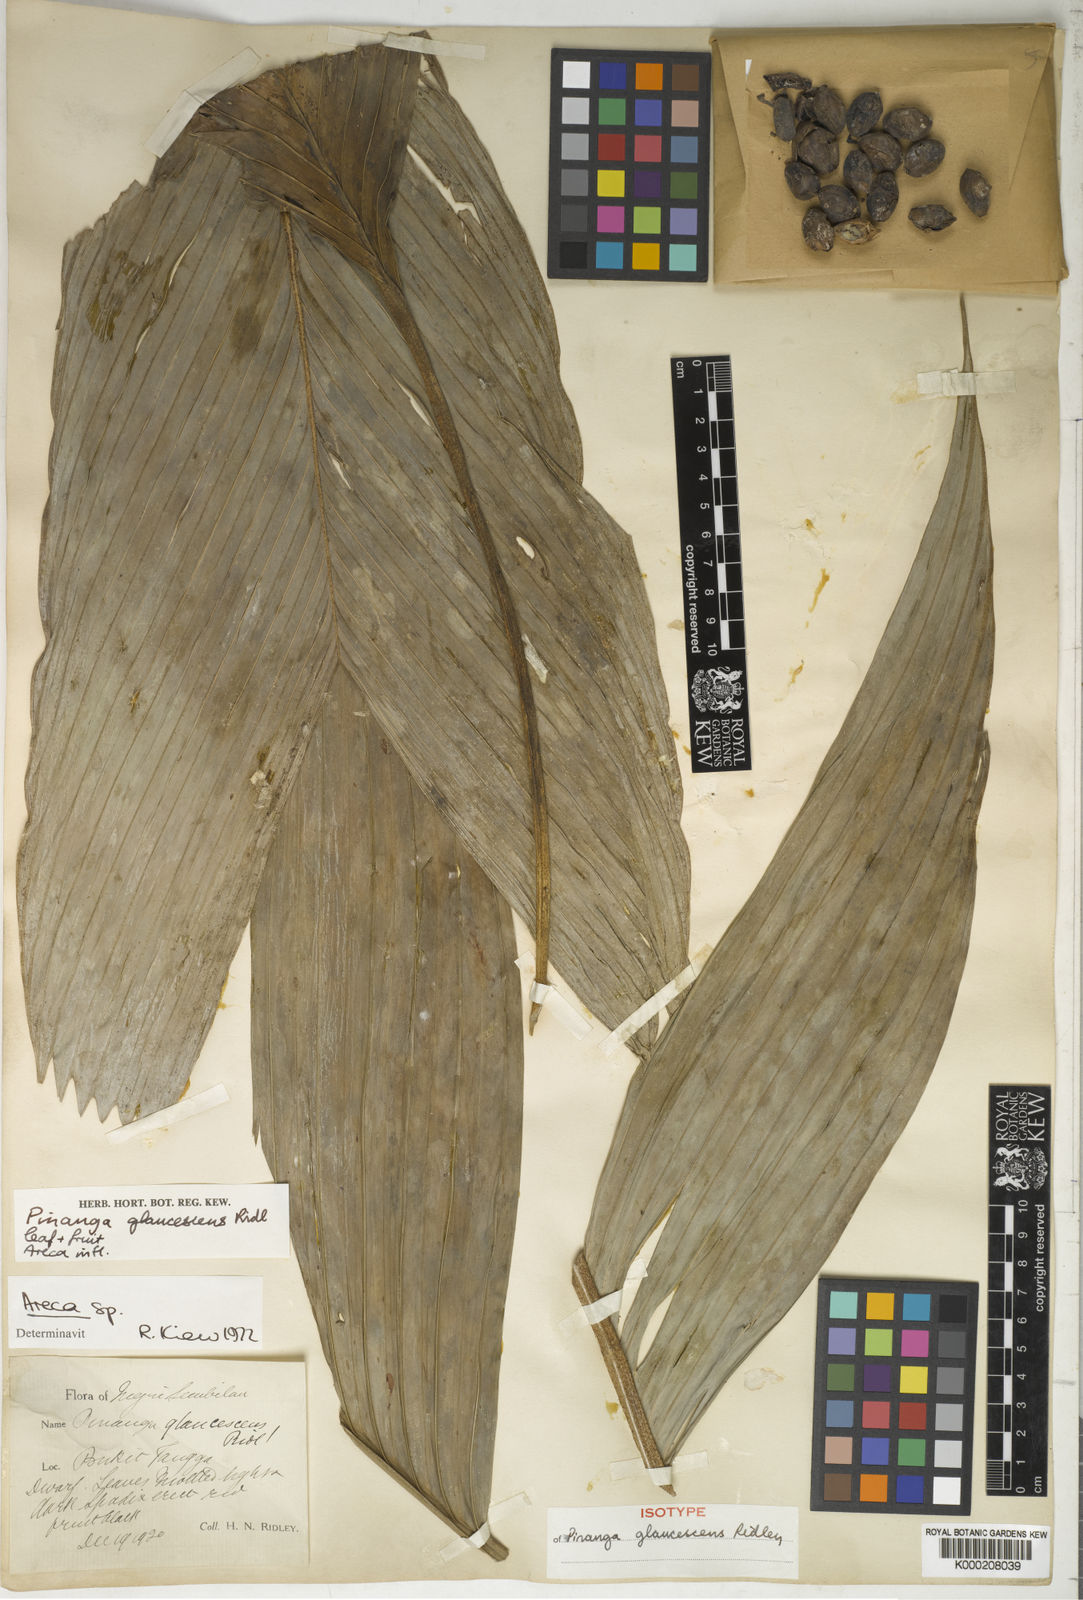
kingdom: Plantae
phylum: Tracheophyta
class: Liliopsida
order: Arecales
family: Arecaceae
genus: Pinanga
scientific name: Pinanga glaucescens
